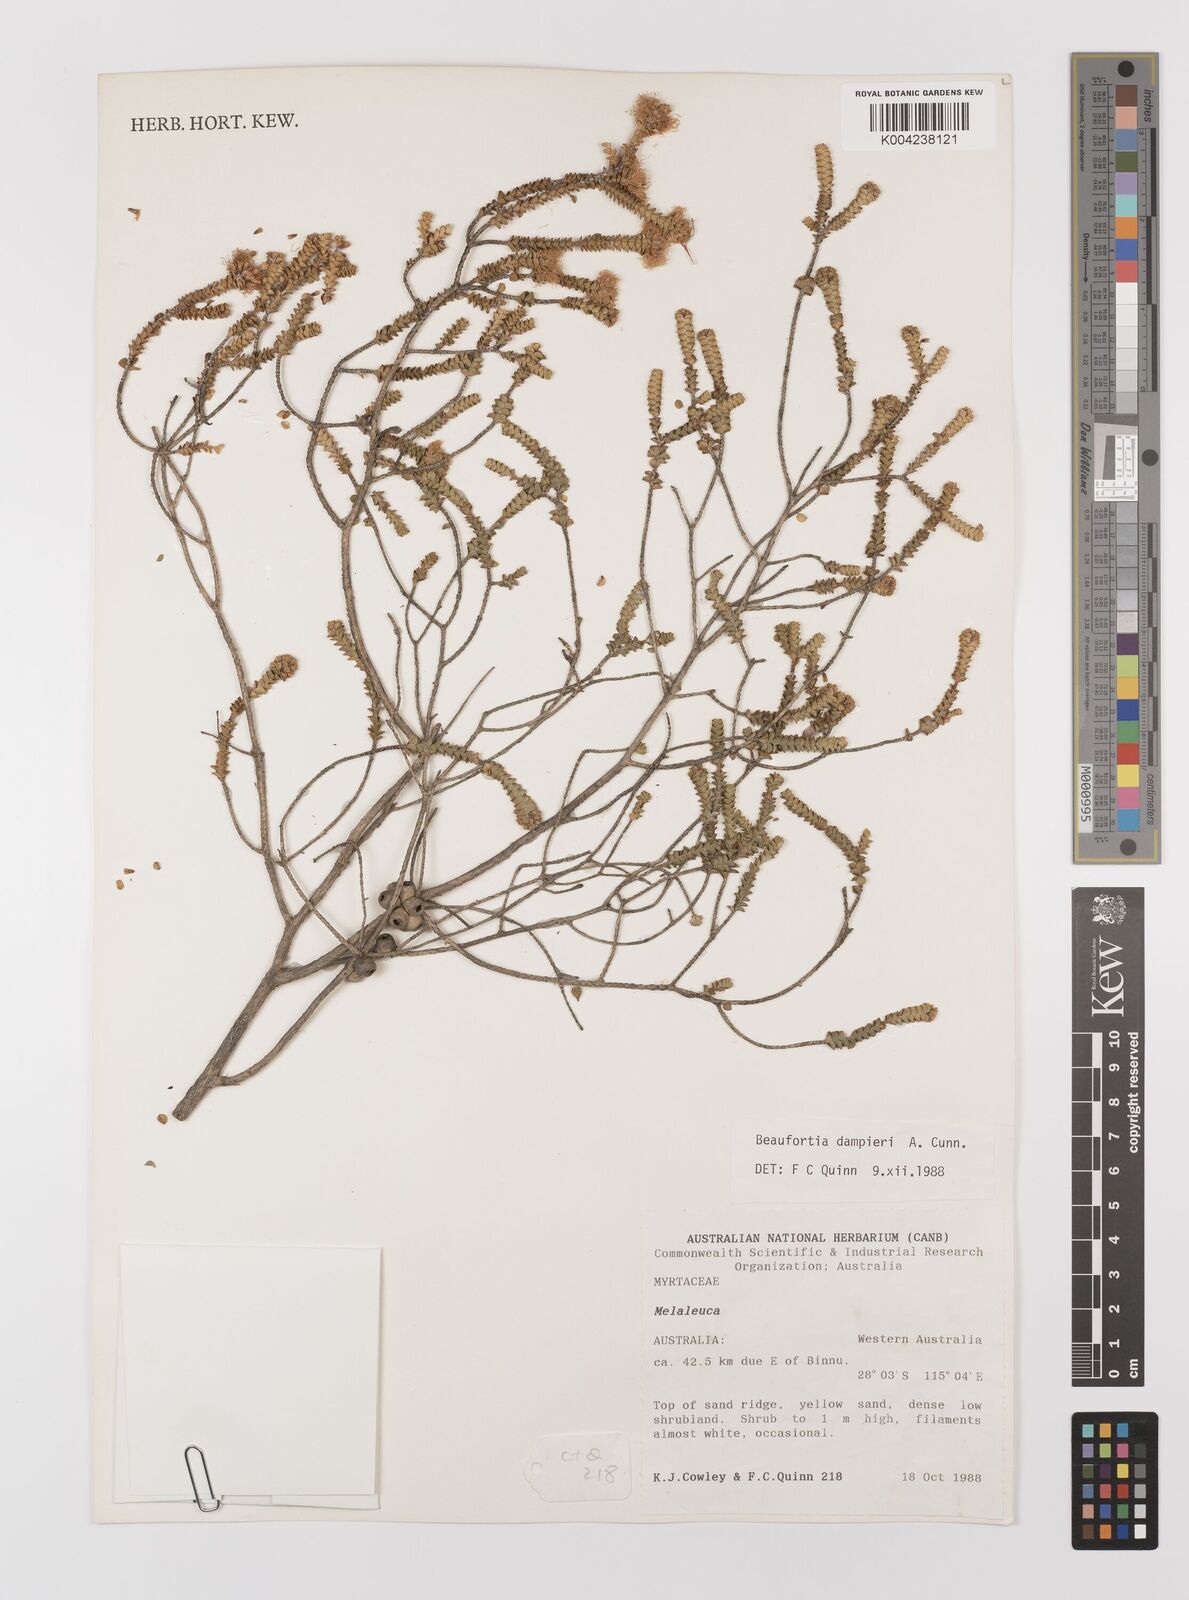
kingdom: Plantae
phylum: Tracheophyta
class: Magnoliopsida
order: Myrtales
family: Myrtaceae
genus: Melaleuca
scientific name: Melaleuca sprengelioides
